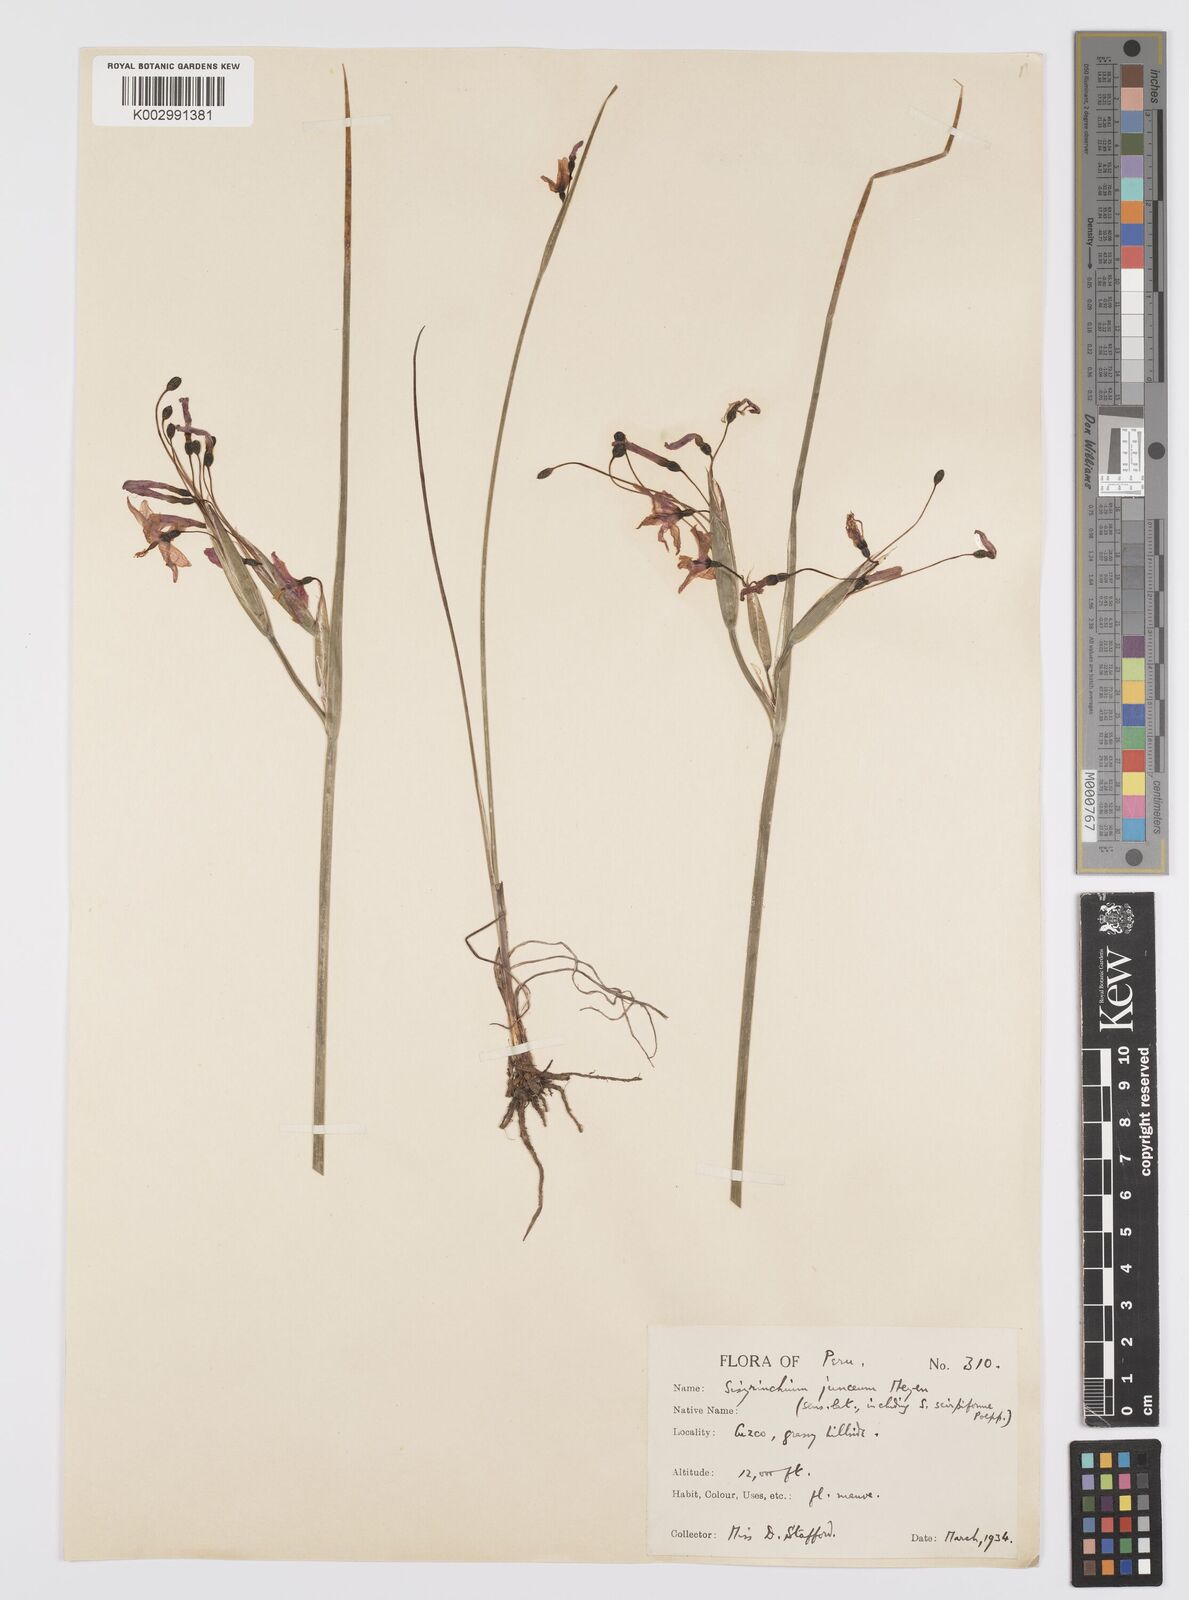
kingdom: Plantae
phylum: Tracheophyta
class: Liliopsida
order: Asparagales
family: Iridaceae
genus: Olsynium
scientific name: Olsynium junceum
